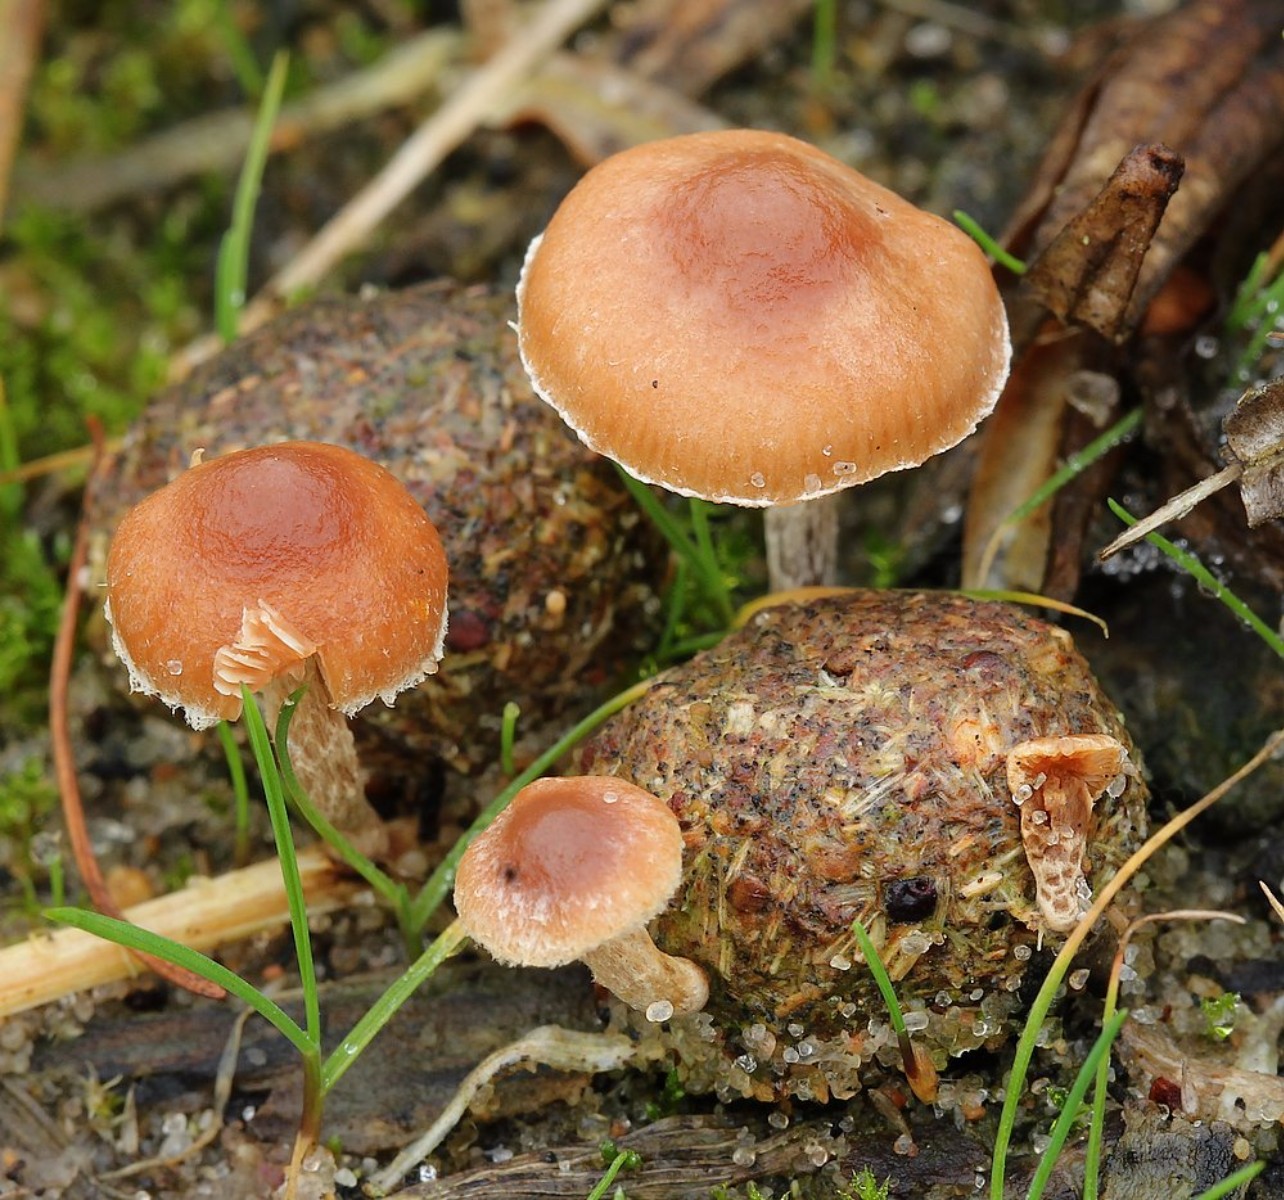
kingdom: Fungi
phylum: Basidiomycota
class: Agaricomycetes
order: Agaricales
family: Strophariaceae
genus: Deconica
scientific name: Deconica
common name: stråhat
